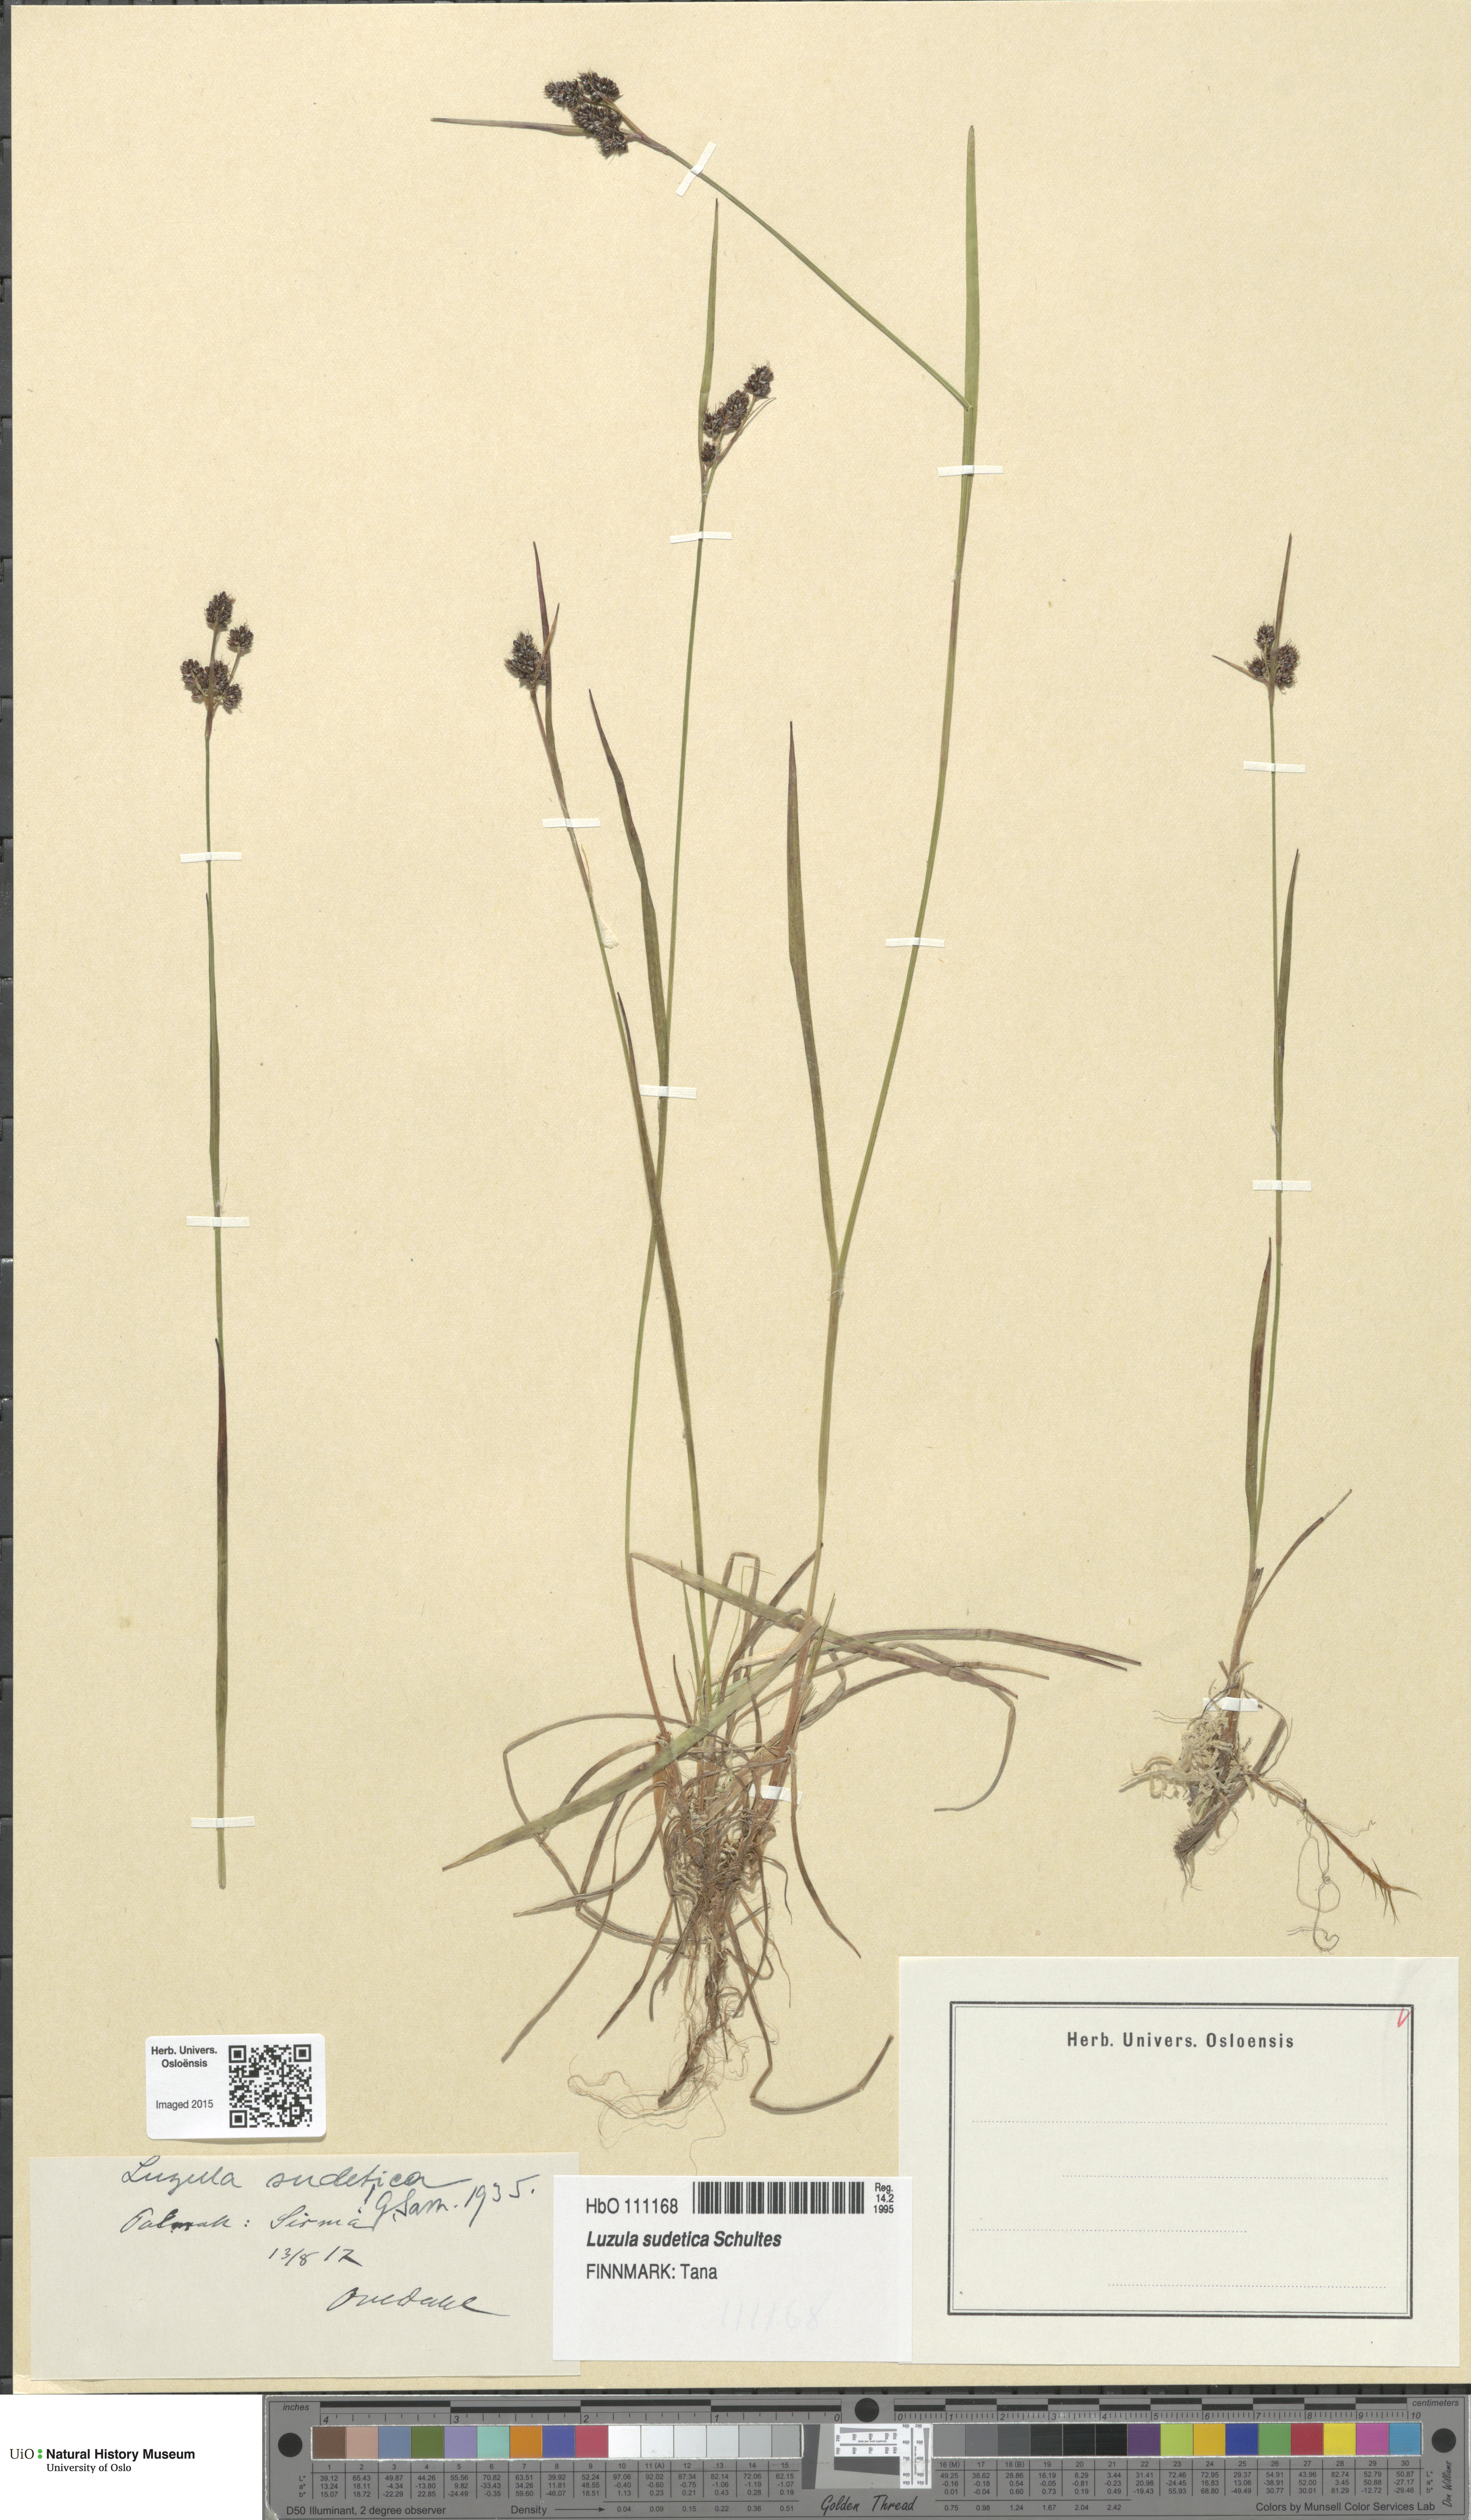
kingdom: Plantae
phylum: Tracheophyta
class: Liliopsida
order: Poales
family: Juncaceae
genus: Luzula
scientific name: Luzula sudetica
